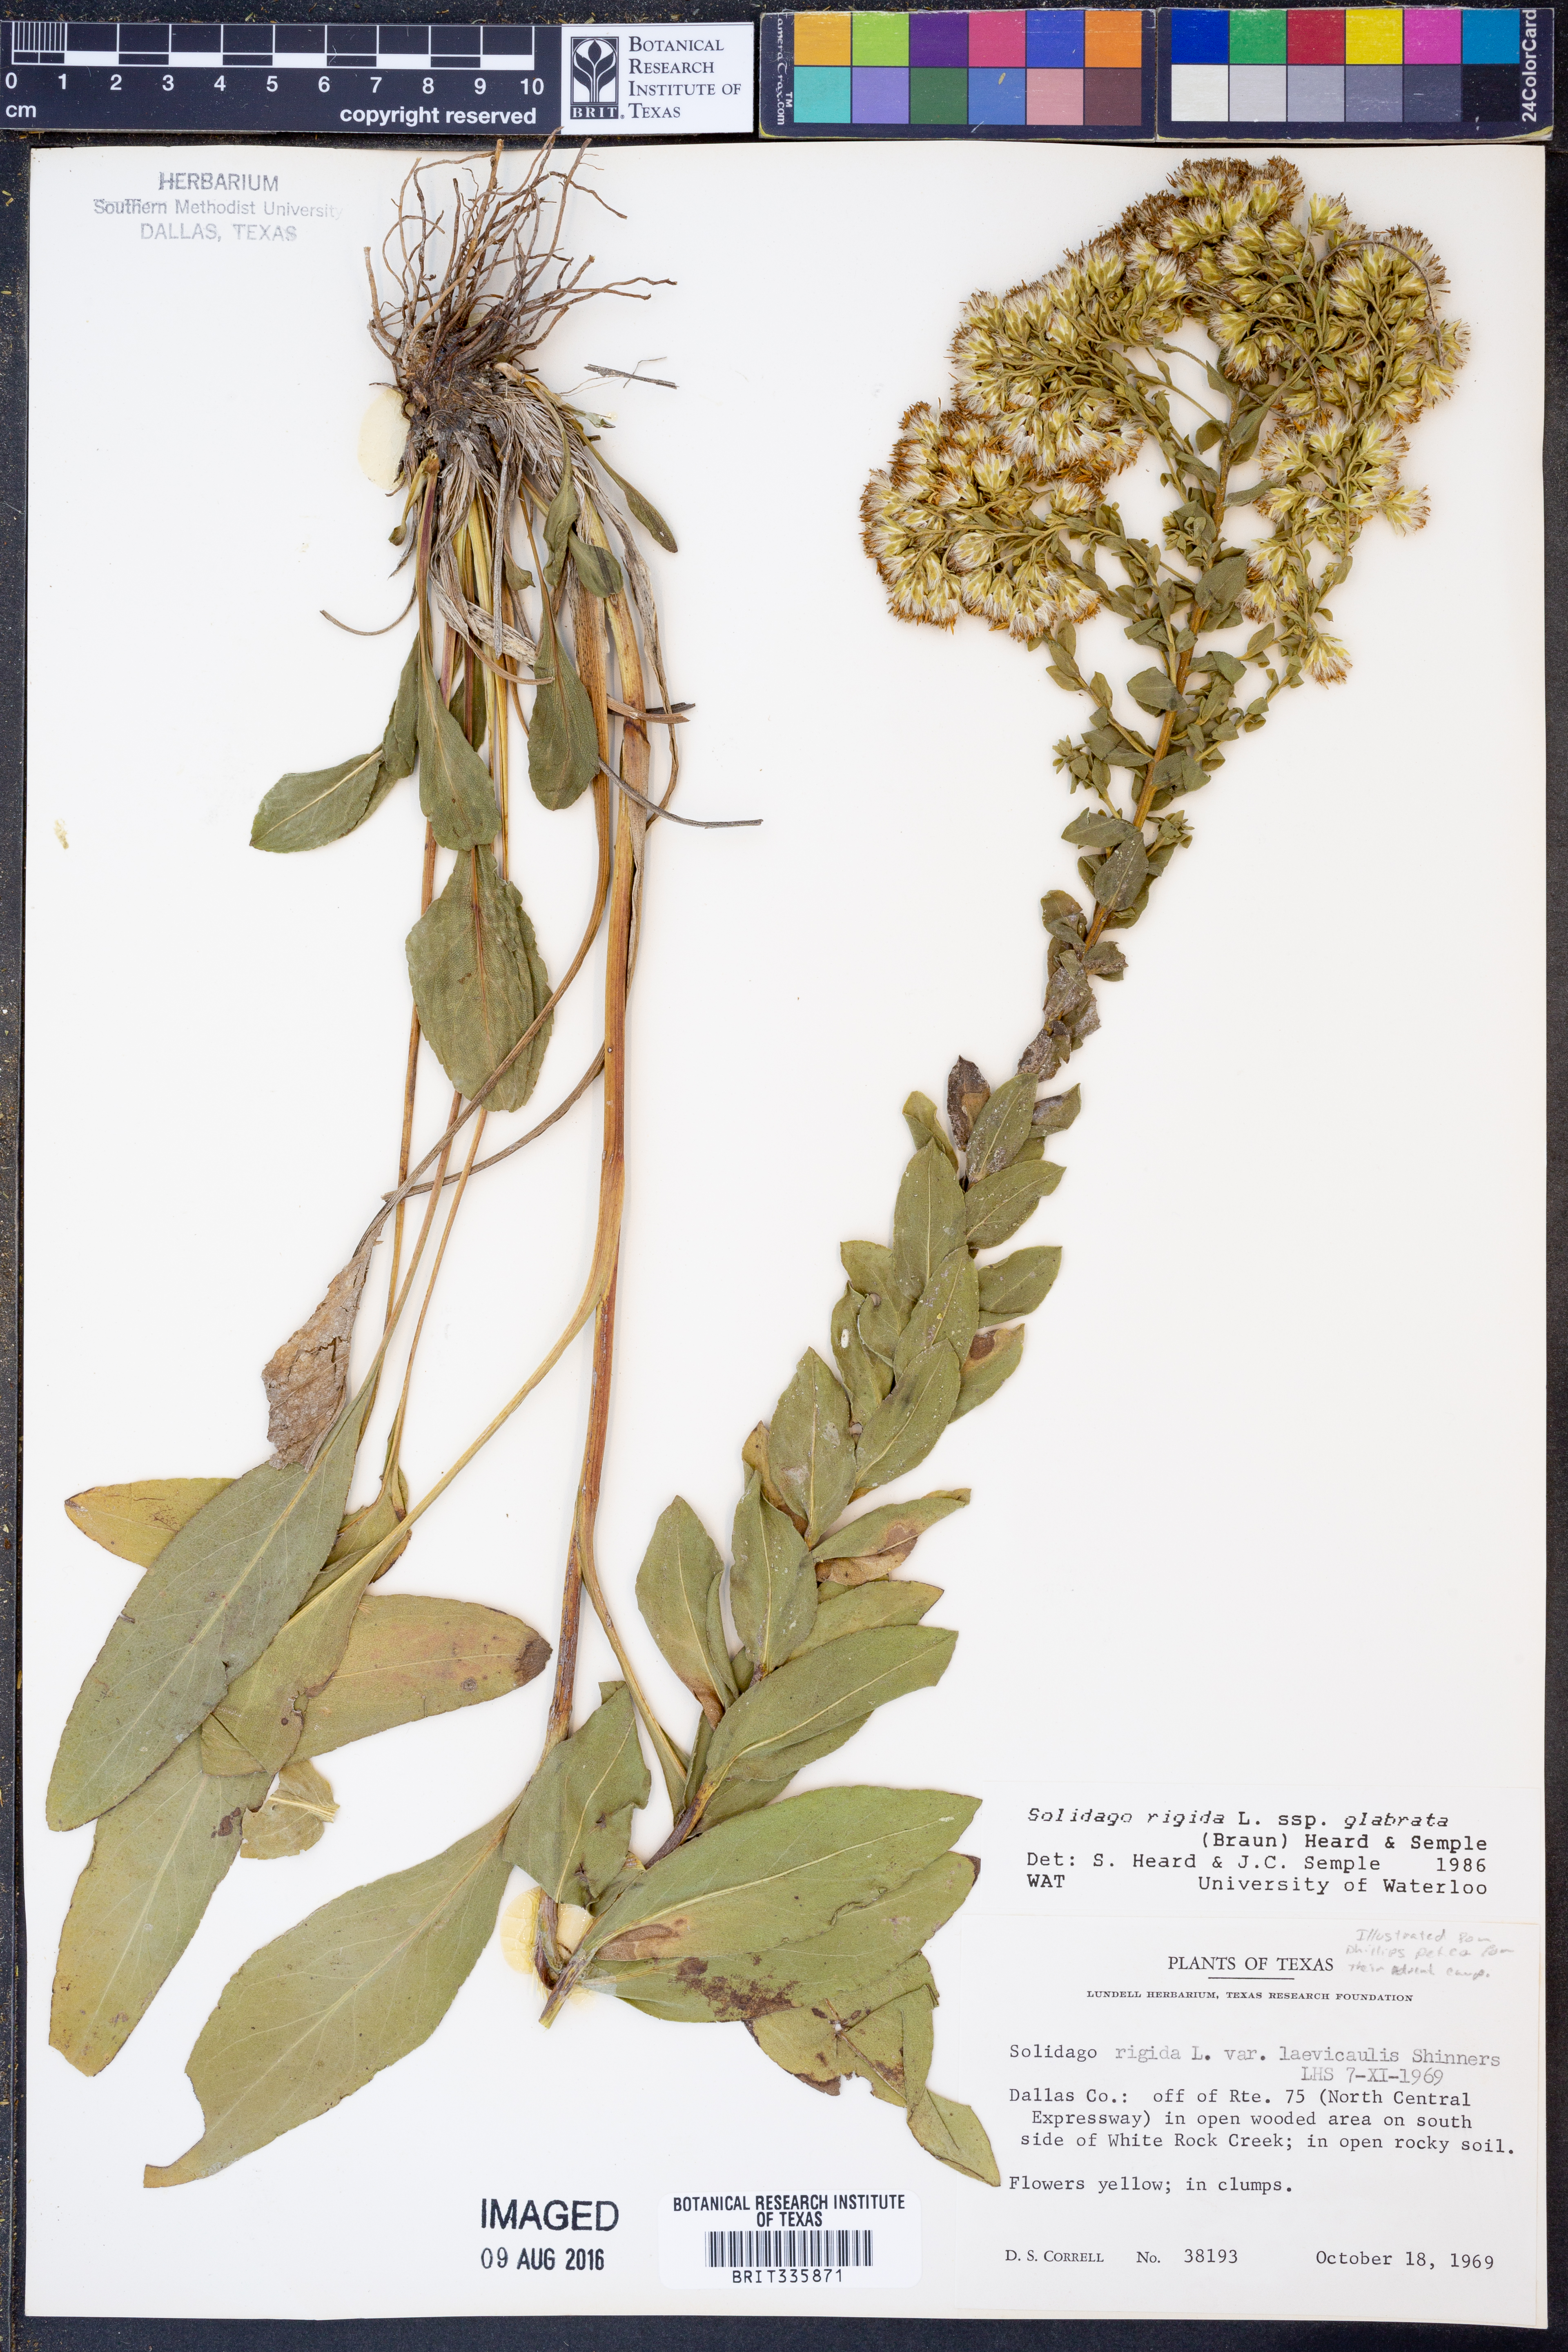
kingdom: Plantae
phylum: Tracheophyta
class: Magnoliopsida
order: Asterales
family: Asteraceae
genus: Solidago
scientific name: Solidago rigida
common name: Rigid goldenrod
